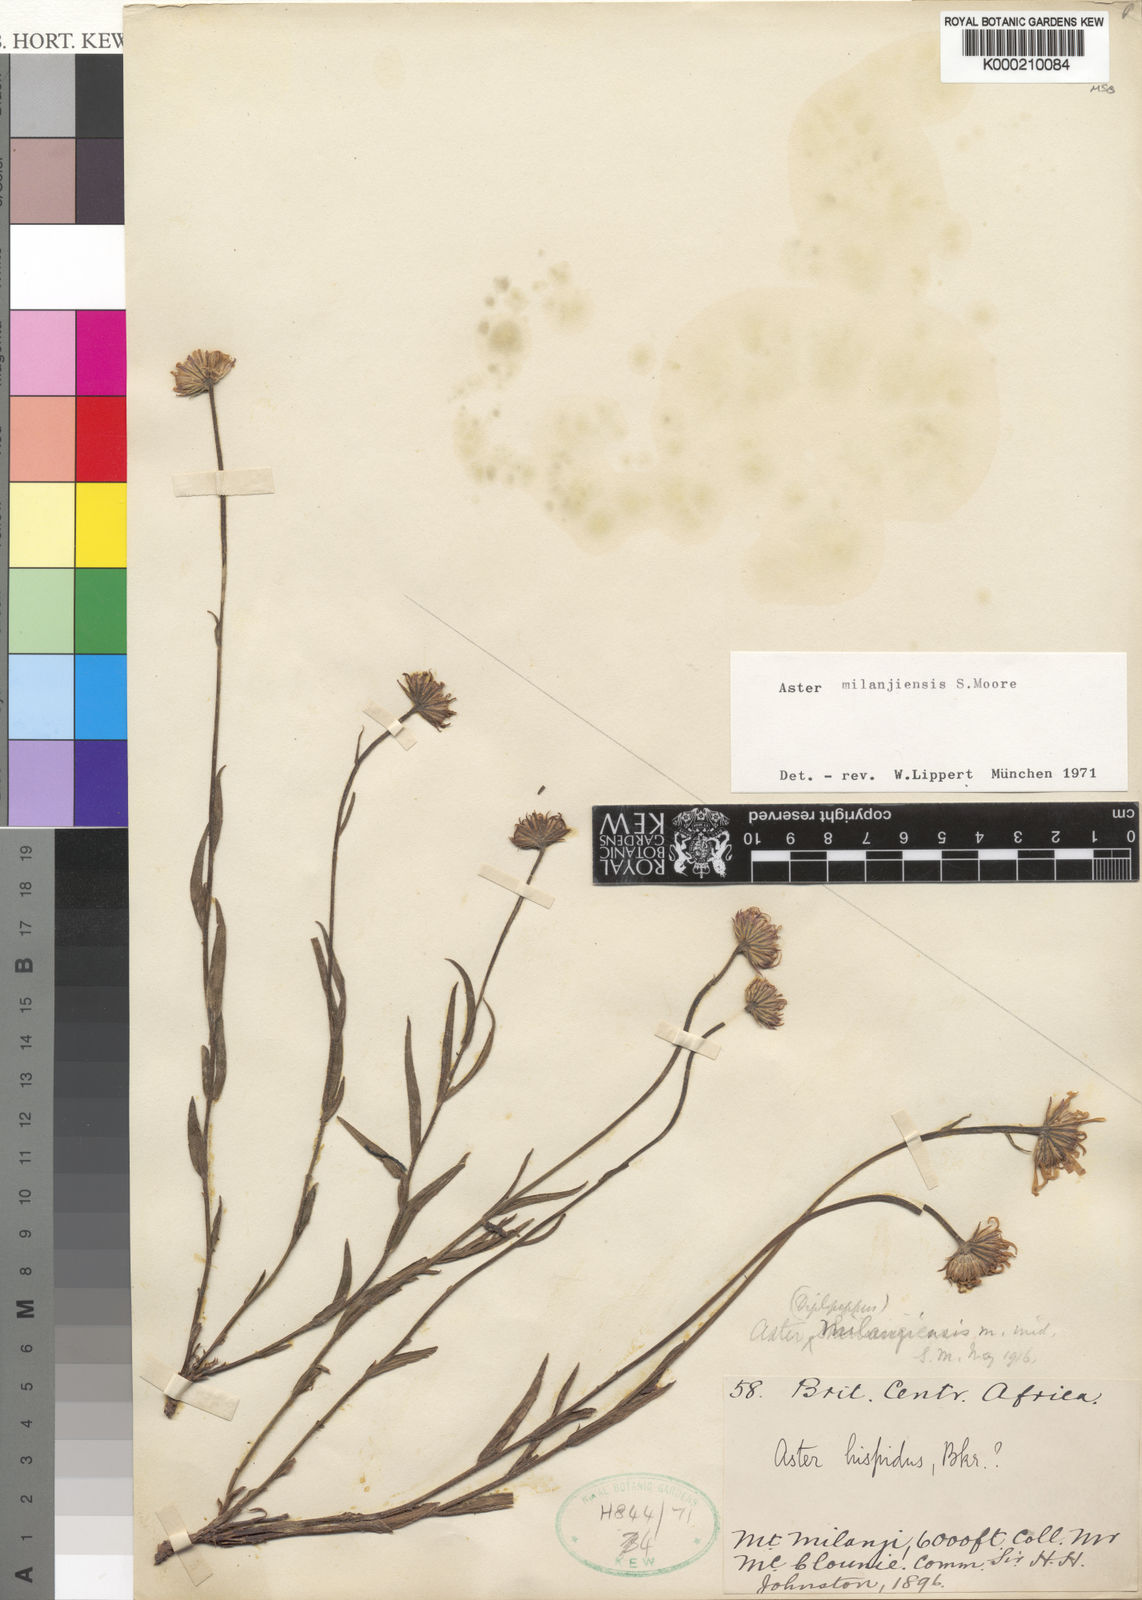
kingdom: Plantae
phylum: Tracheophyta
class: Magnoliopsida
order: Asterales
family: Asteraceae
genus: Afroaster
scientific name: Afroaster milanjiensis
